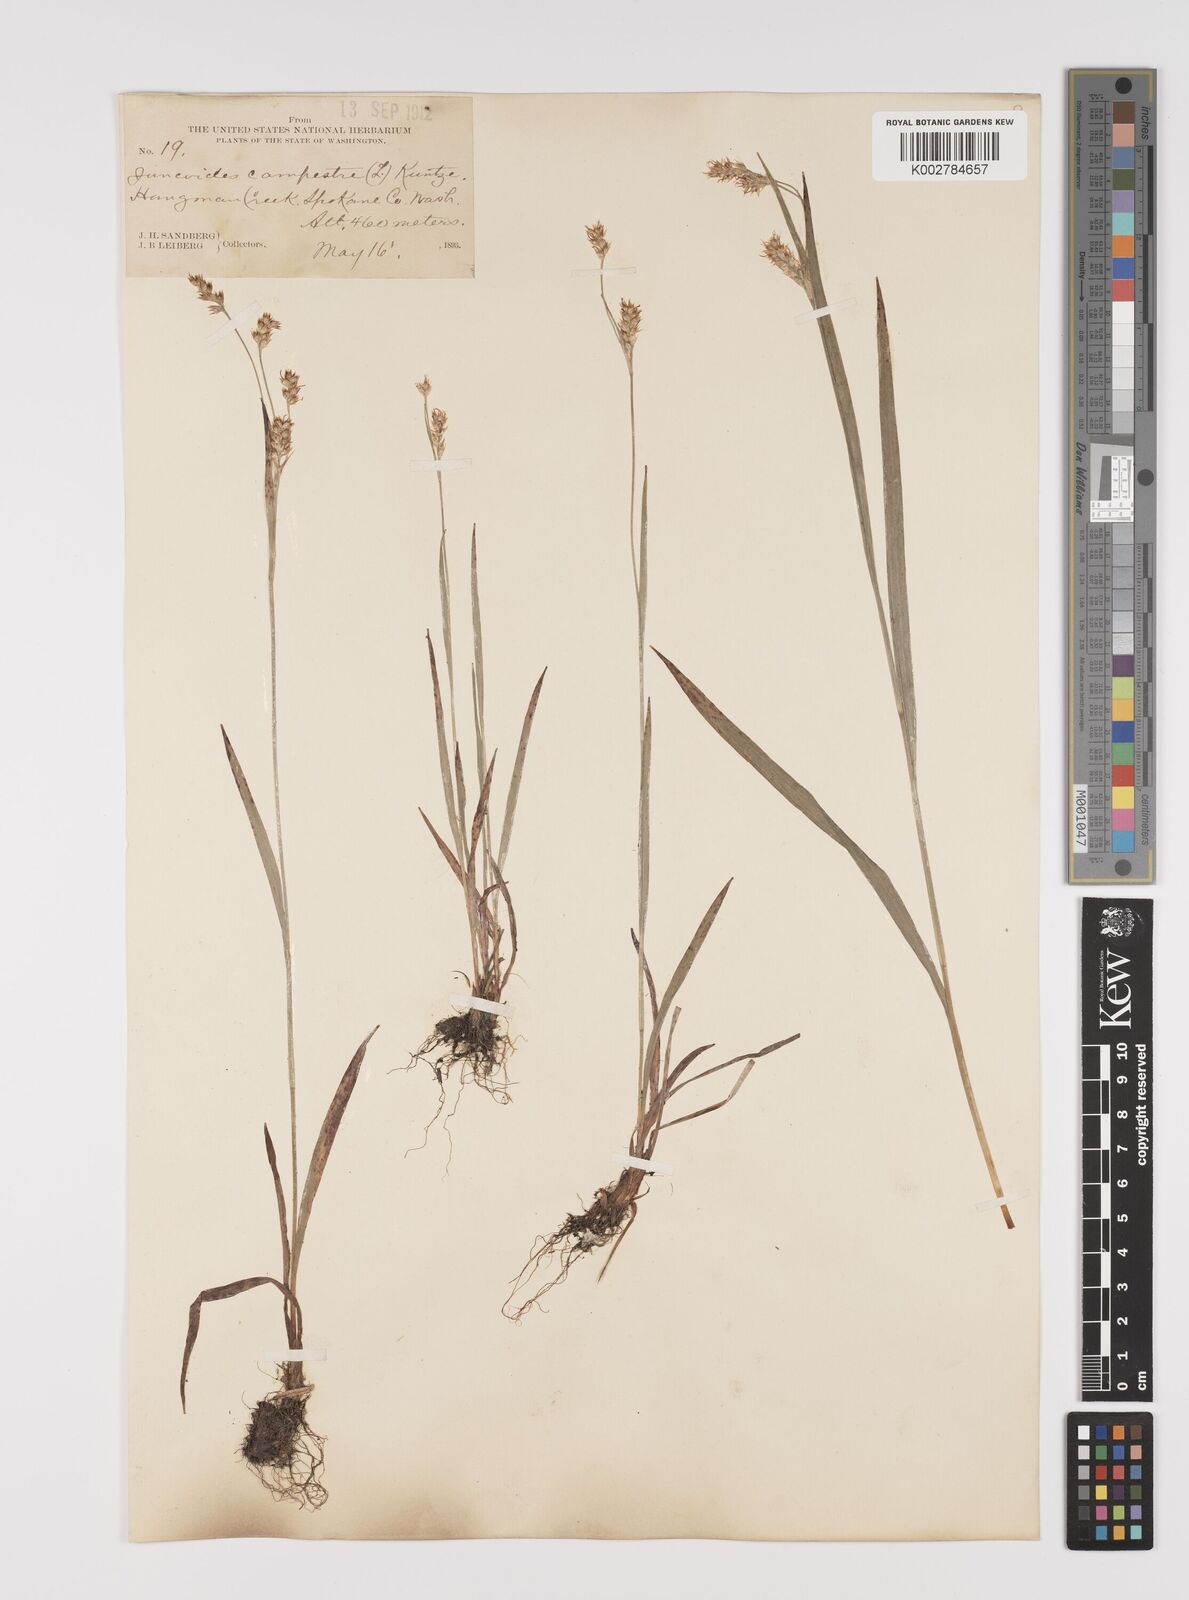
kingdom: Plantae
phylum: Tracheophyta
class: Liliopsida
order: Poales
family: Juncaceae
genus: Luzula
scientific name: Luzula campestris
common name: Field wood-rush
